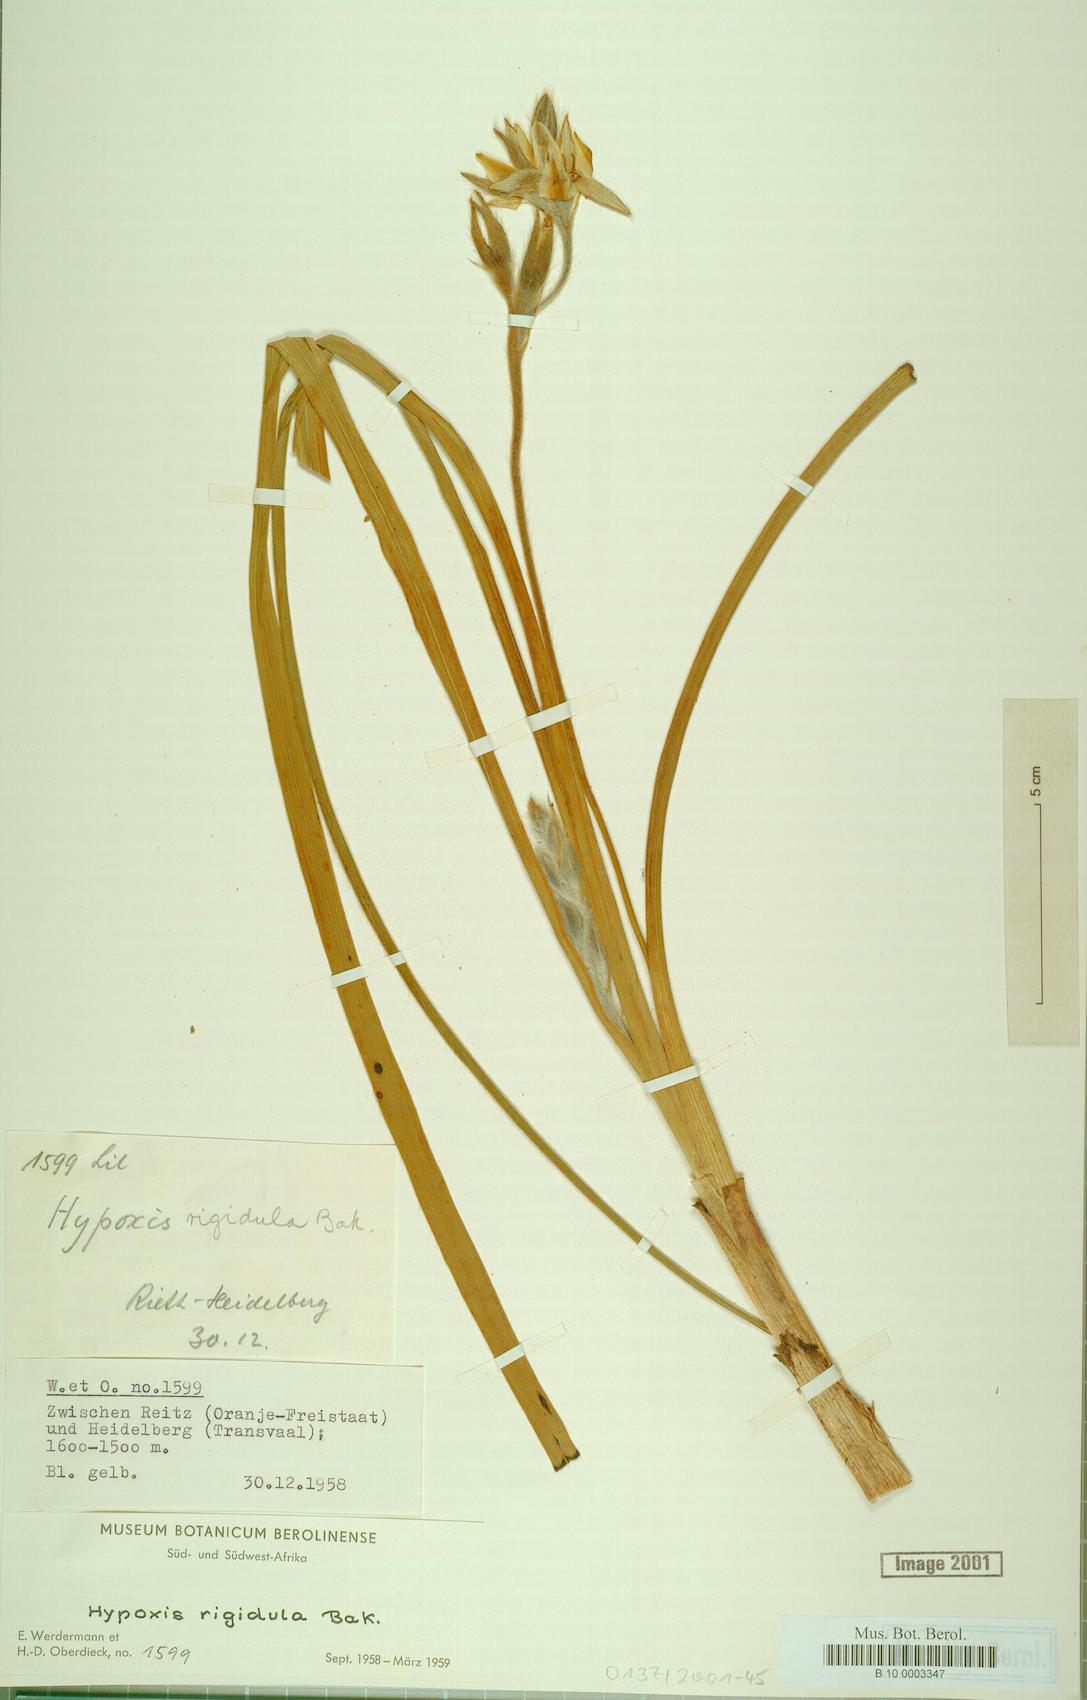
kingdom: Plantae
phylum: Tracheophyta
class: Liliopsida
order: Asparagales
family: Hypoxidaceae
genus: Hypoxis
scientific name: Hypoxis rigidula
